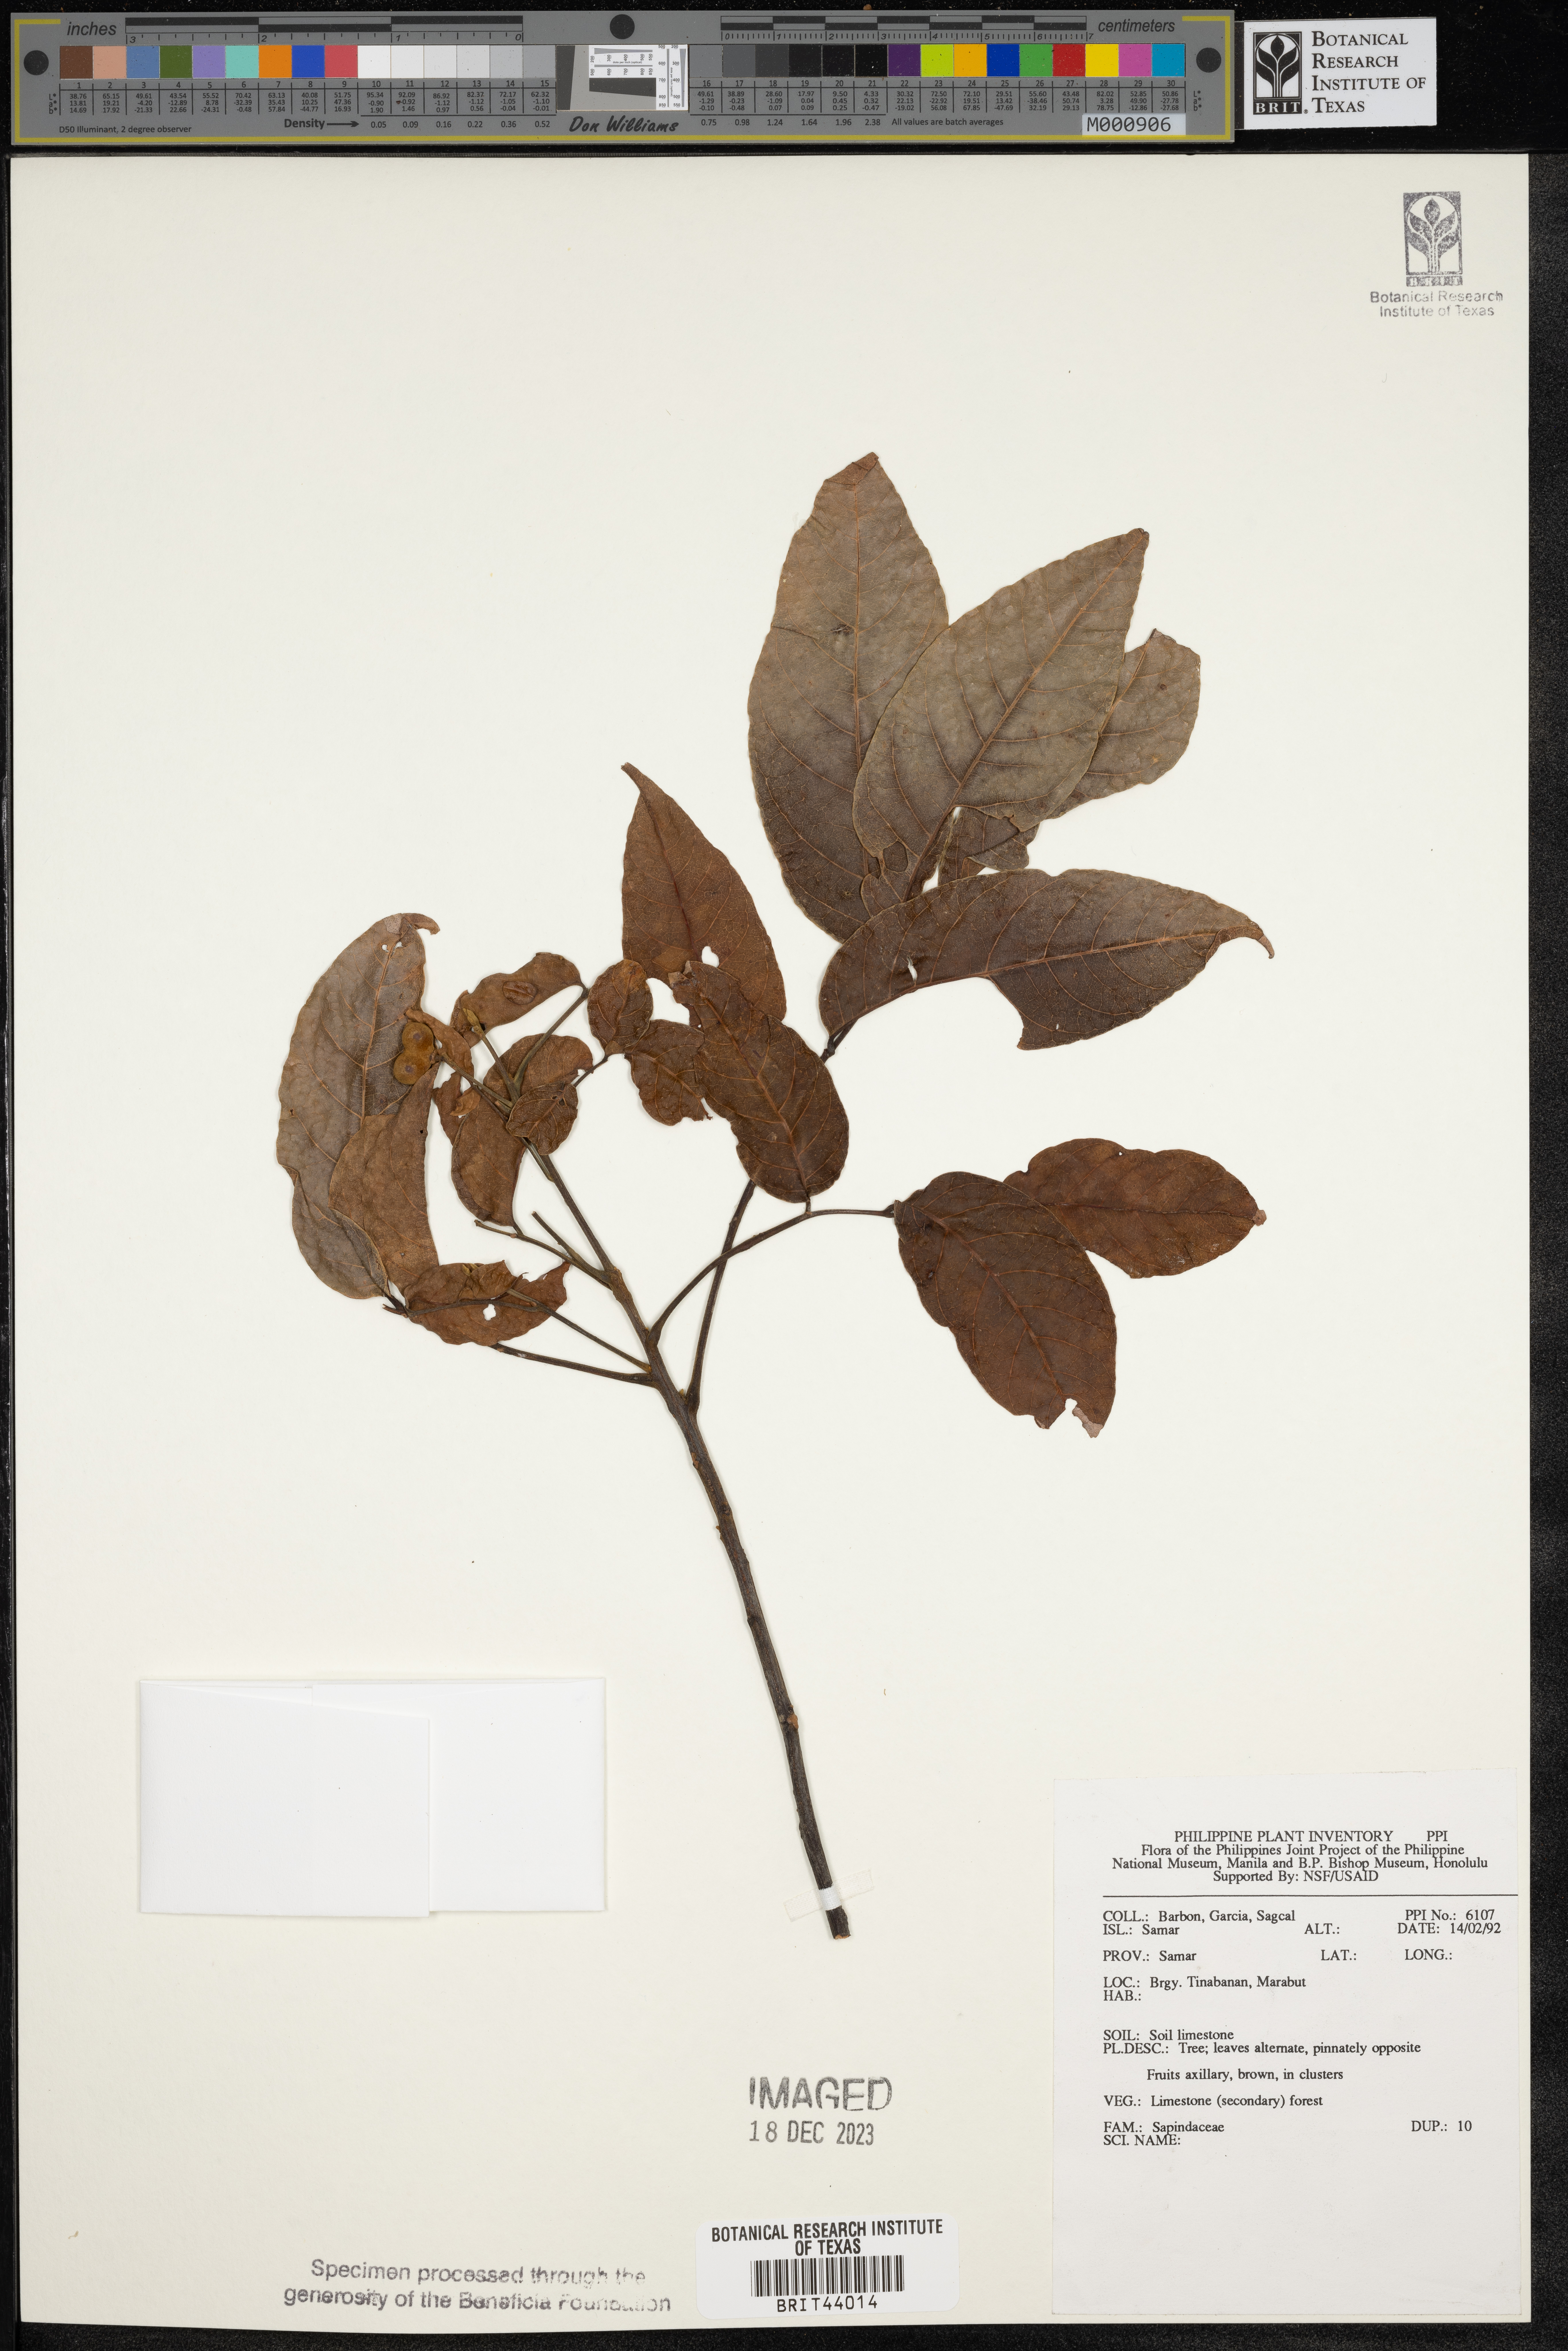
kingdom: Plantae
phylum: Tracheophyta
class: Magnoliopsida
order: Sapindales
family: Sapindaceae
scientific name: Sapindaceae
